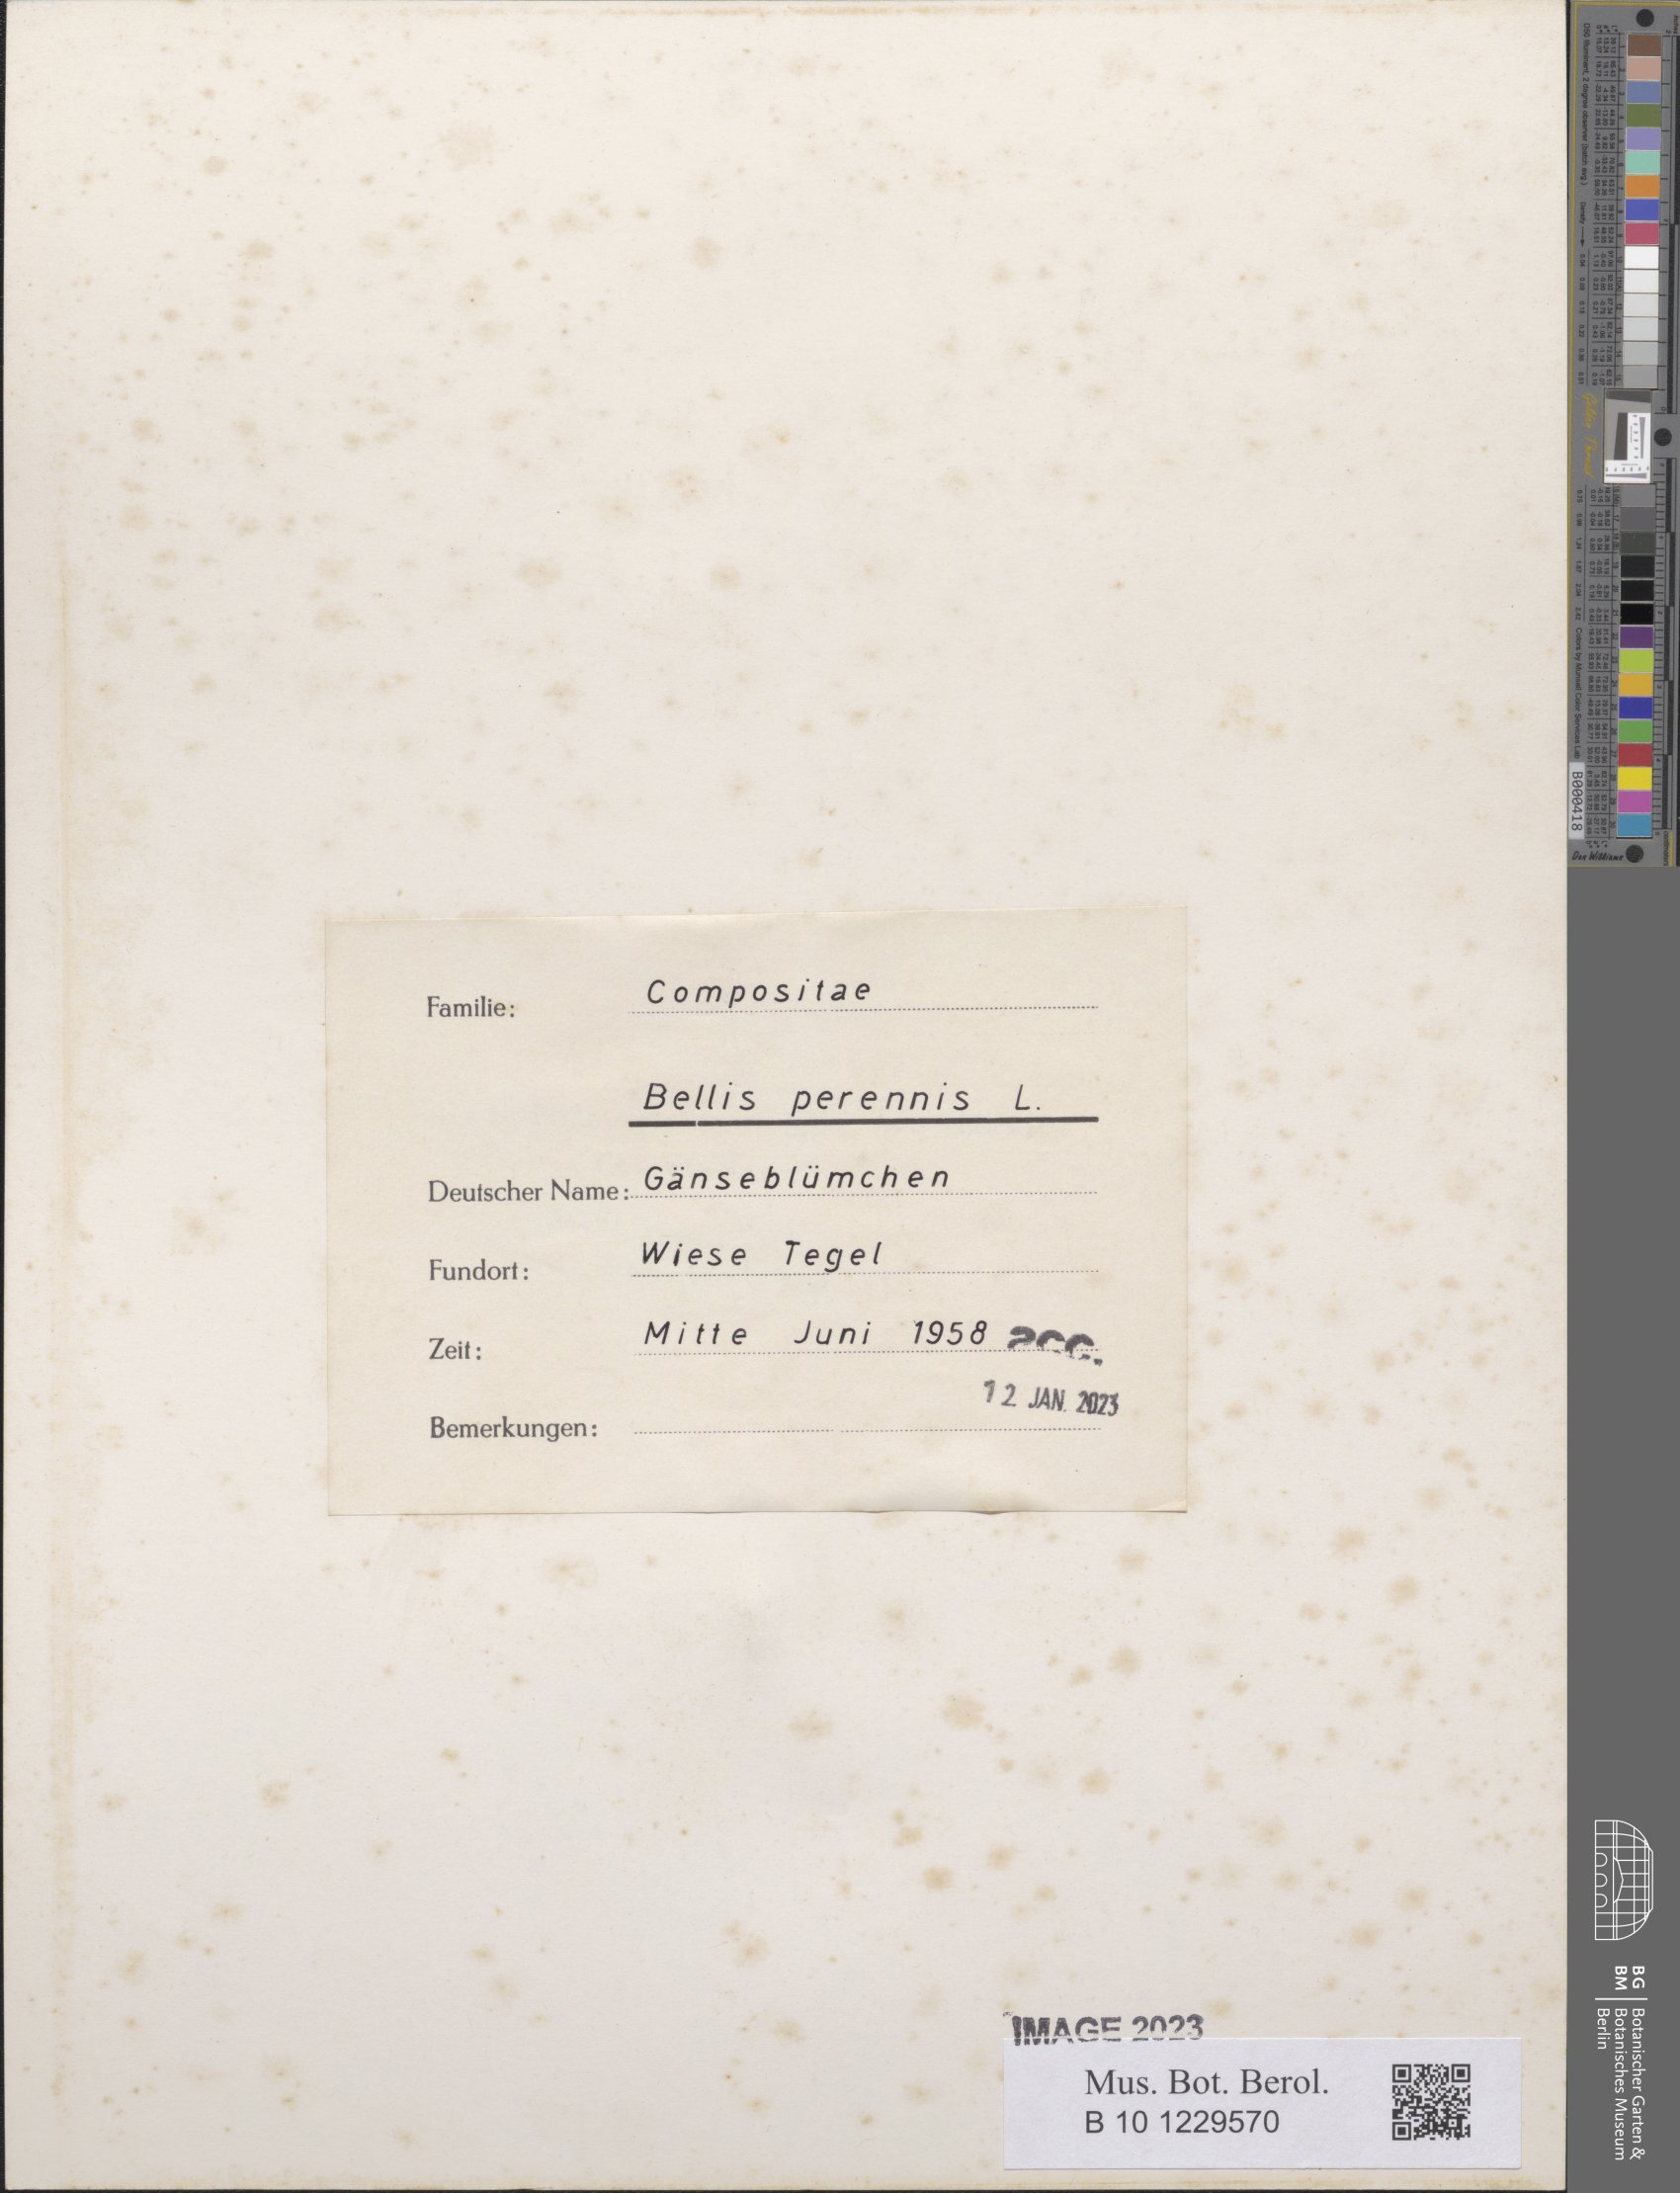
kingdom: Plantae
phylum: Tracheophyta
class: Magnoliopsida
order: Asterales
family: Asteraceae
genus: Bellis
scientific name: Bellis perennis
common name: Lawndaisy
